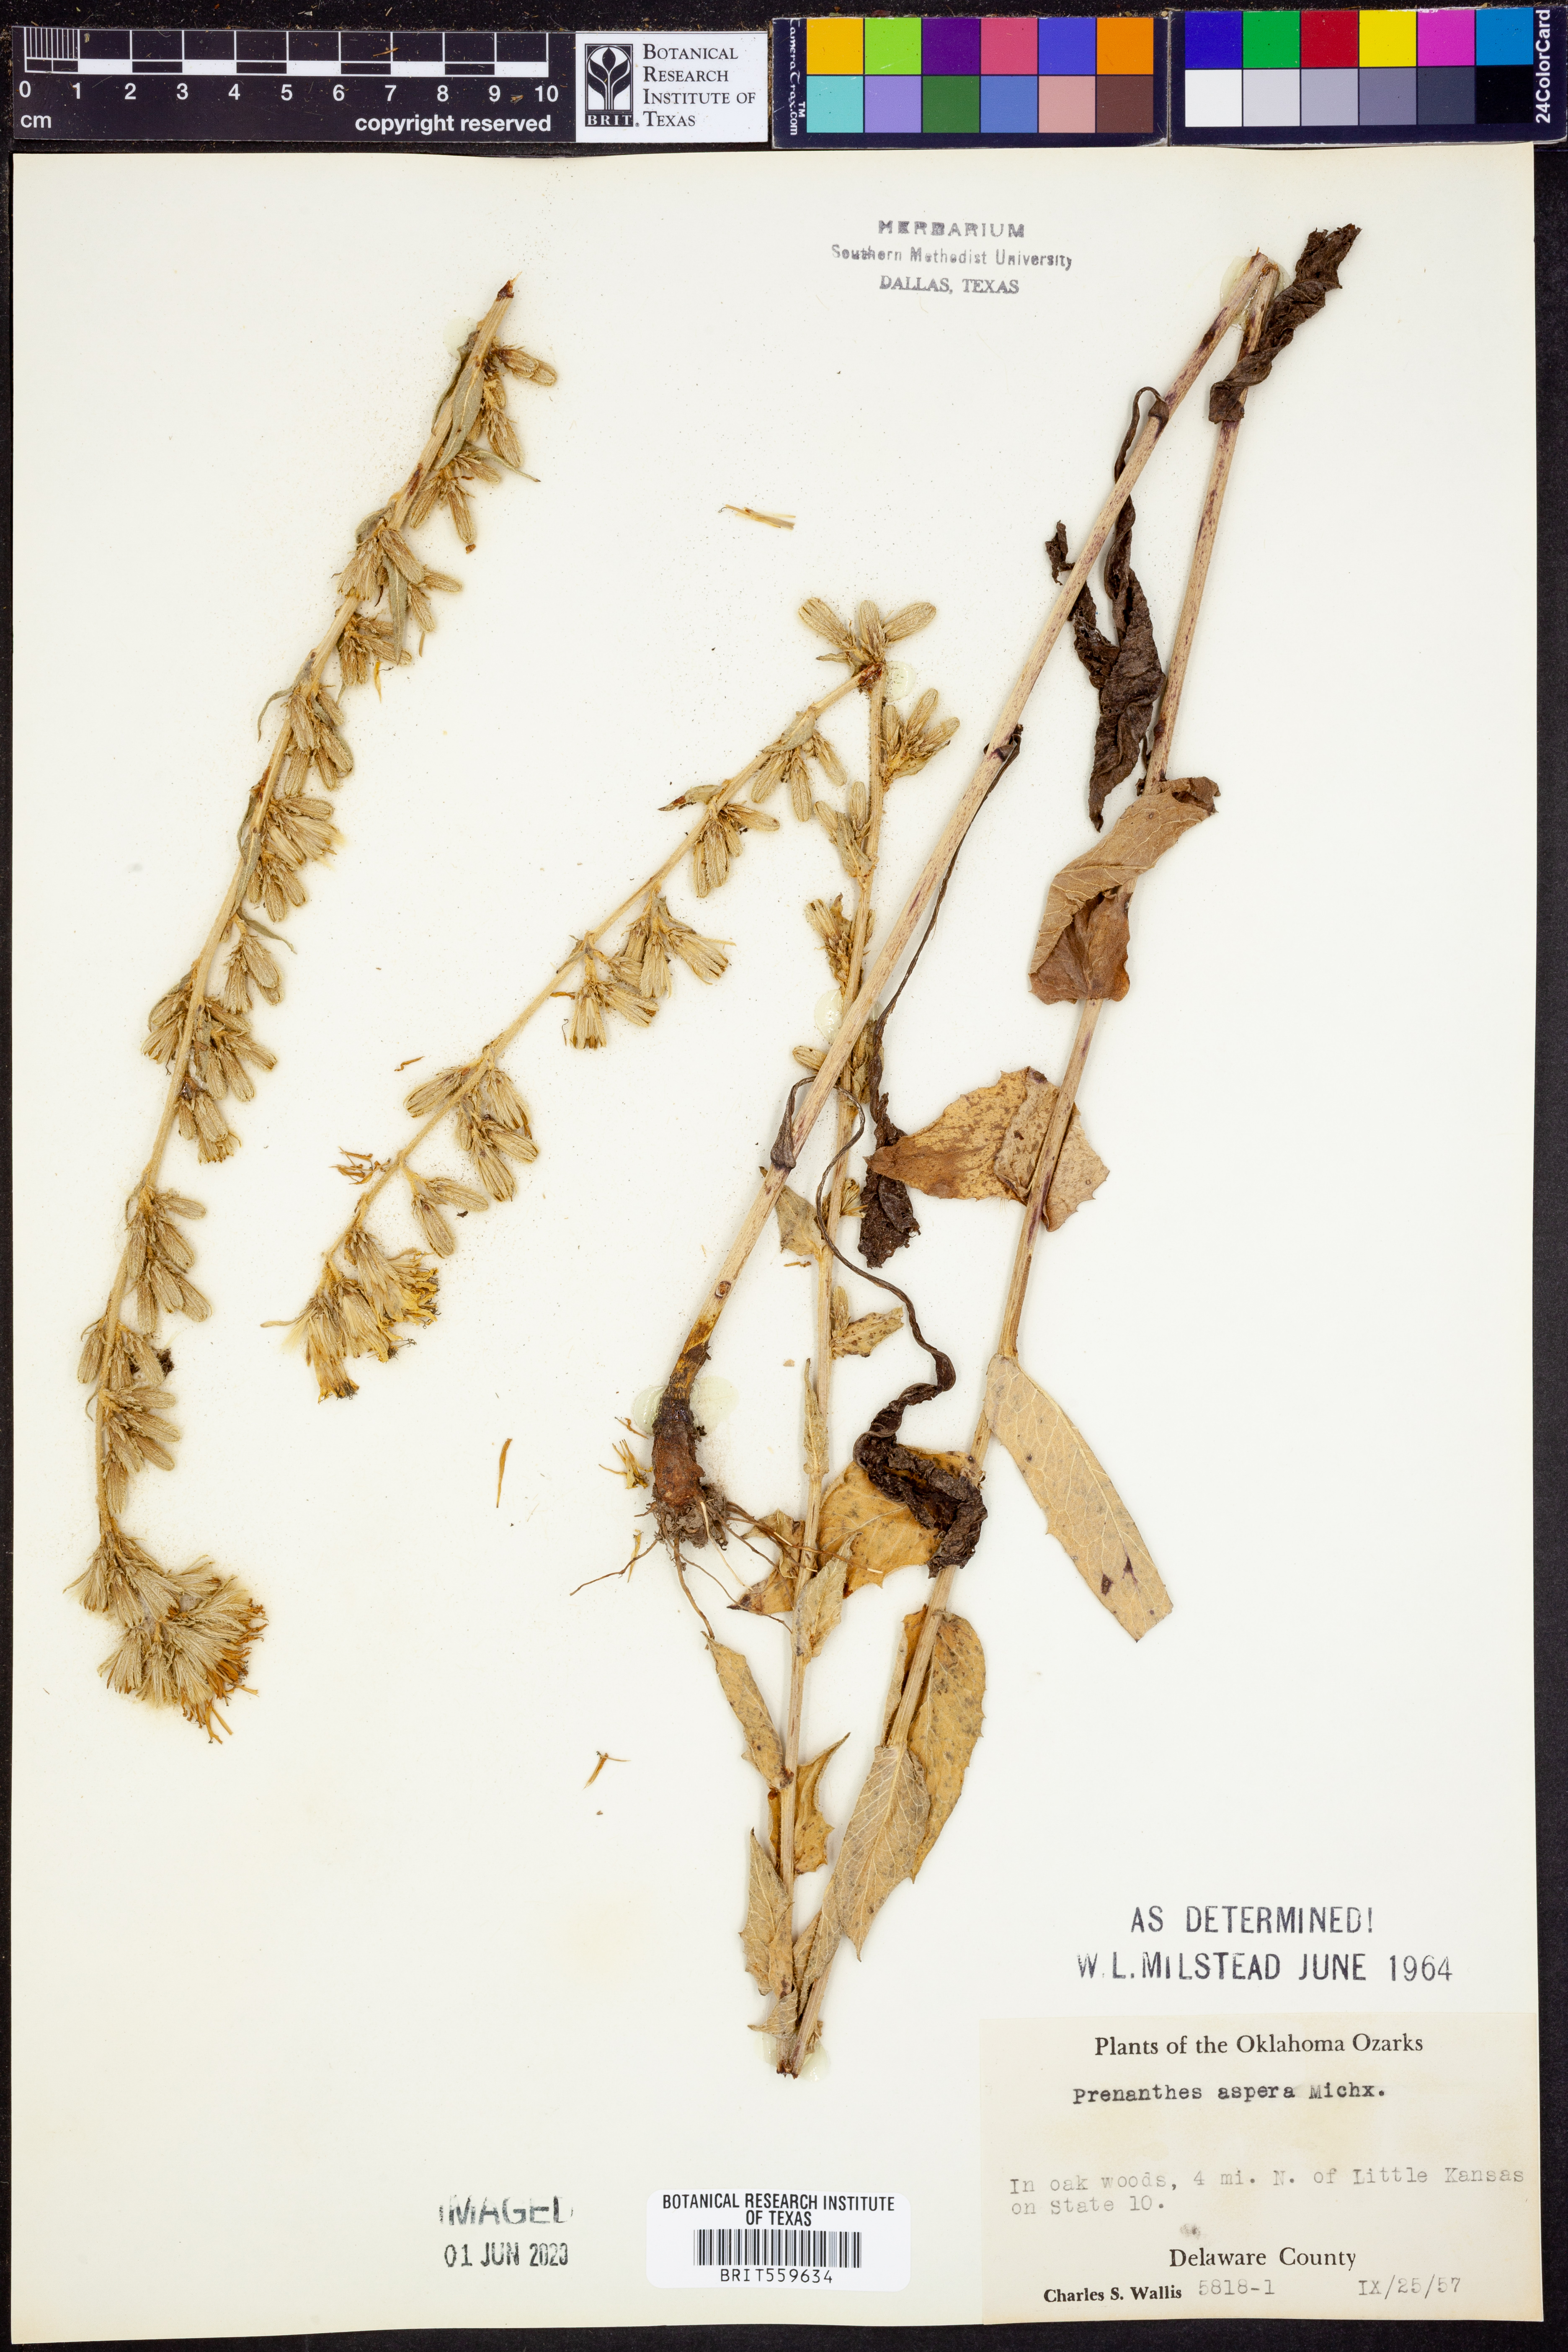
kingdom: Plantae
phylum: Tracheophyta
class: Magnoliopsida
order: Asterales
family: Asteraceae
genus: Nabalus
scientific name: Nabalus asper
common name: Rough rattlesnakeroot
